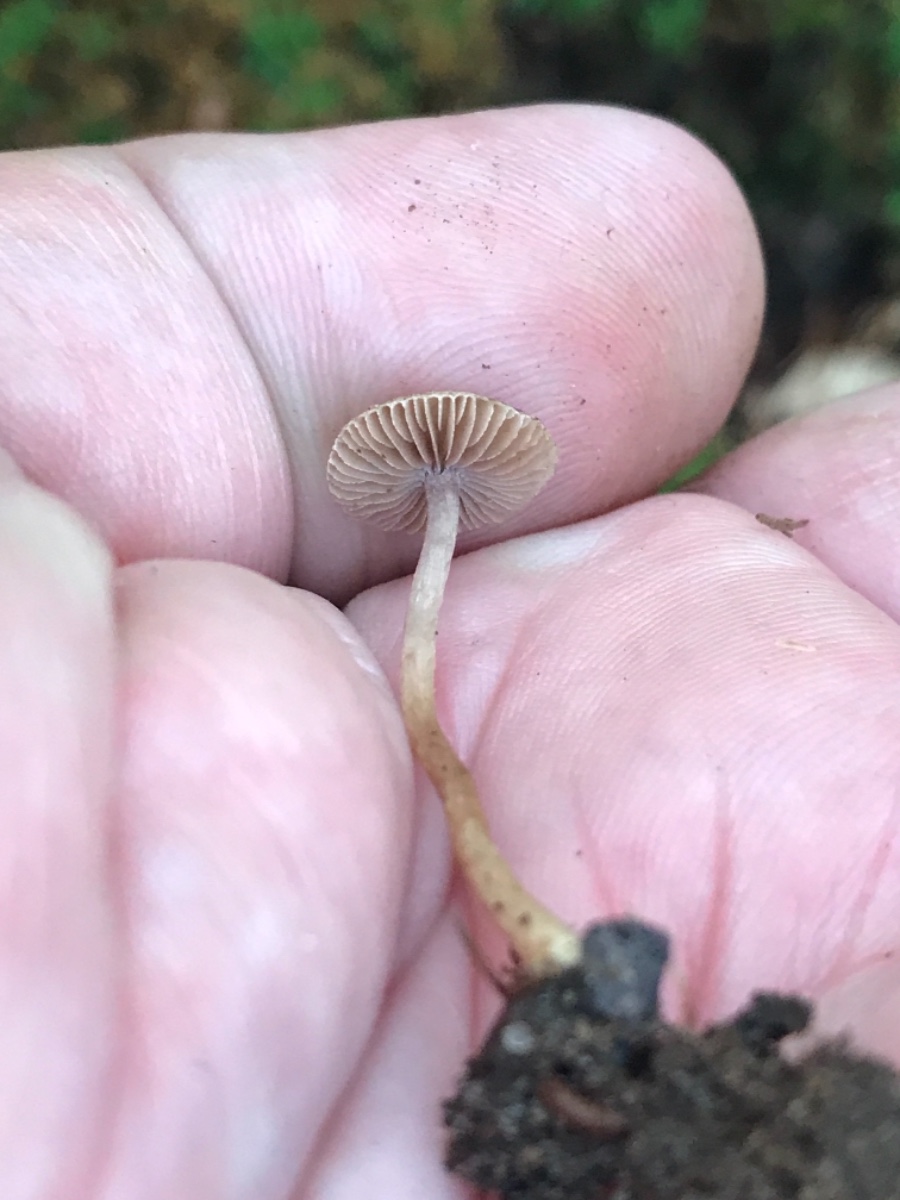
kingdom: Fungi
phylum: Basidiomycota
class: Agaricomycetes
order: Agaricales
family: Inocybaceae
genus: Inocybe
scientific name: Inocybe
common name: trævlhat
